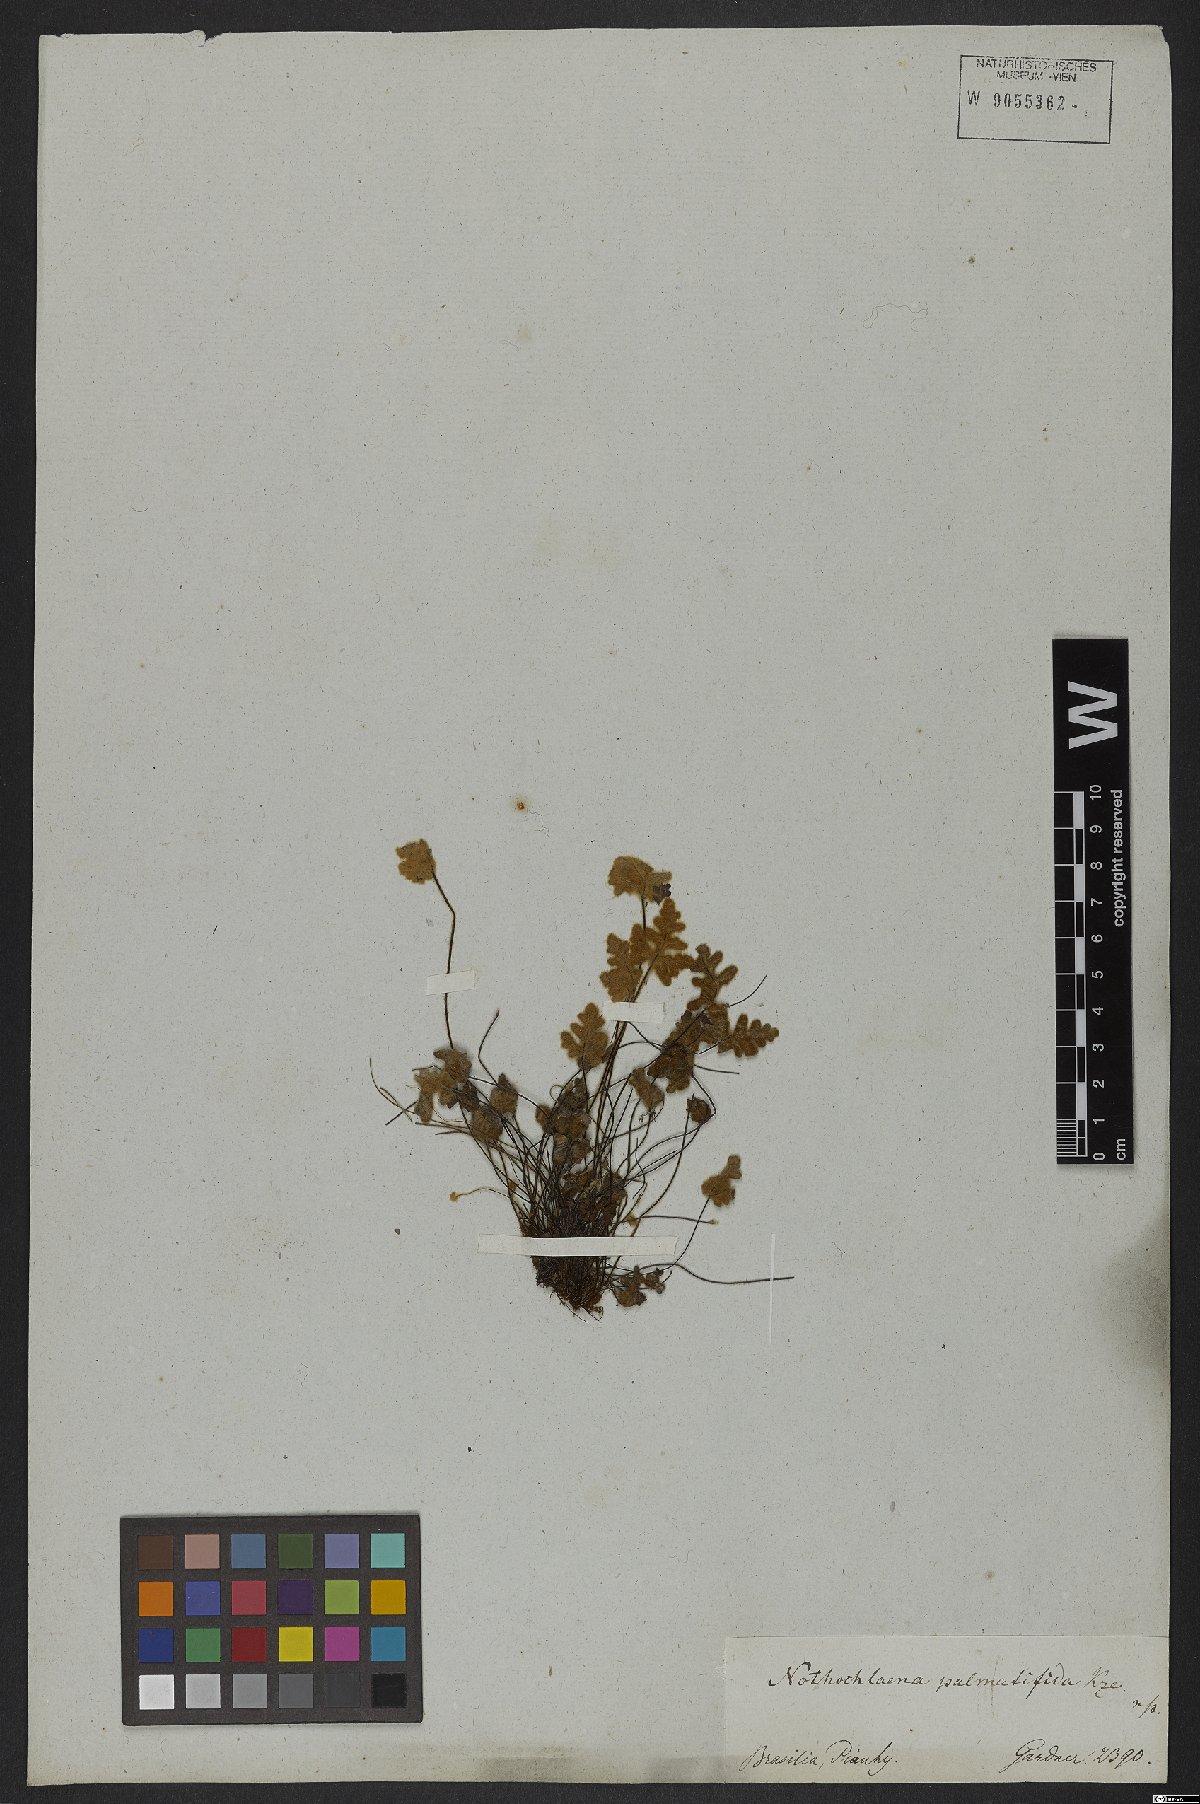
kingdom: Plantae
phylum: Tracheophyta
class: Polypodiopsida
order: Polypodiales
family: Pteridaceae
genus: Mineirella
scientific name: Mineirella eriophora
